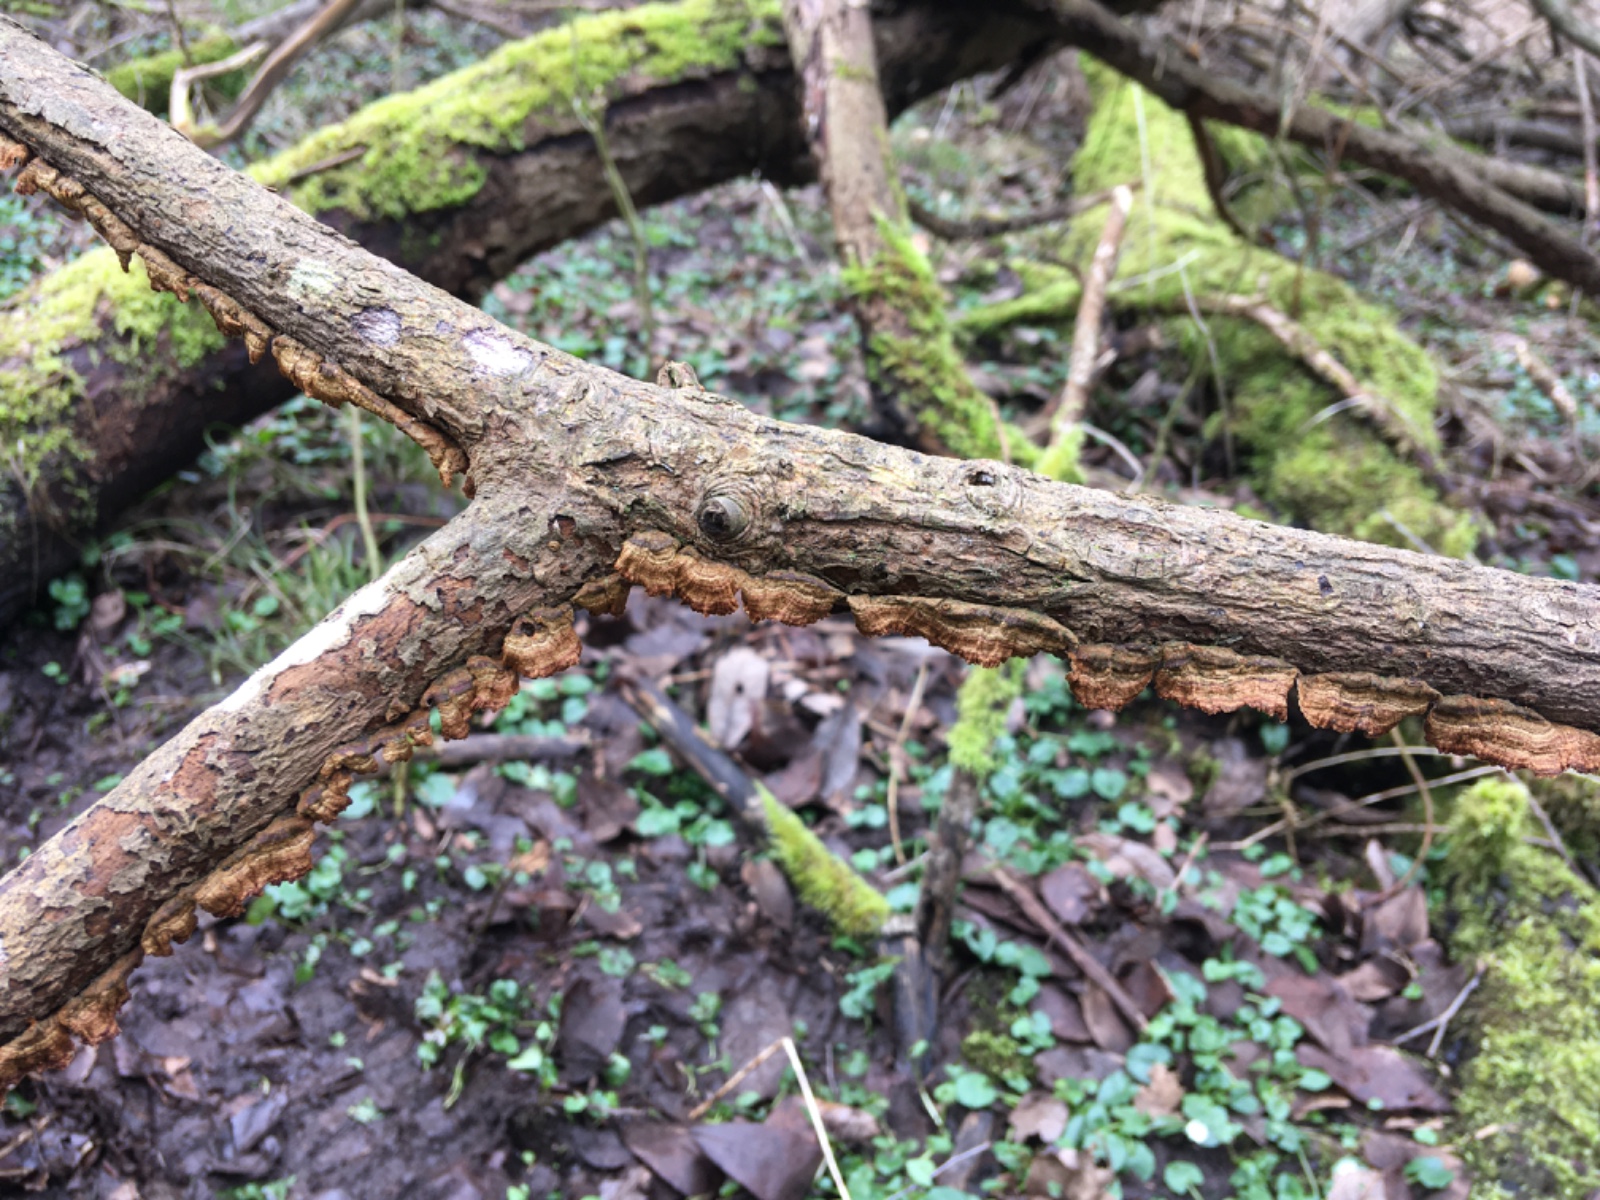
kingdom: Fungi
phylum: Basidiomycota
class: Agaricomycetes
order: Hymenochaetales
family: Hymenochaetaceae
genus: Hydnoporia
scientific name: Hydnoporia tabacina
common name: tobaksbrun ruslædersvamp
